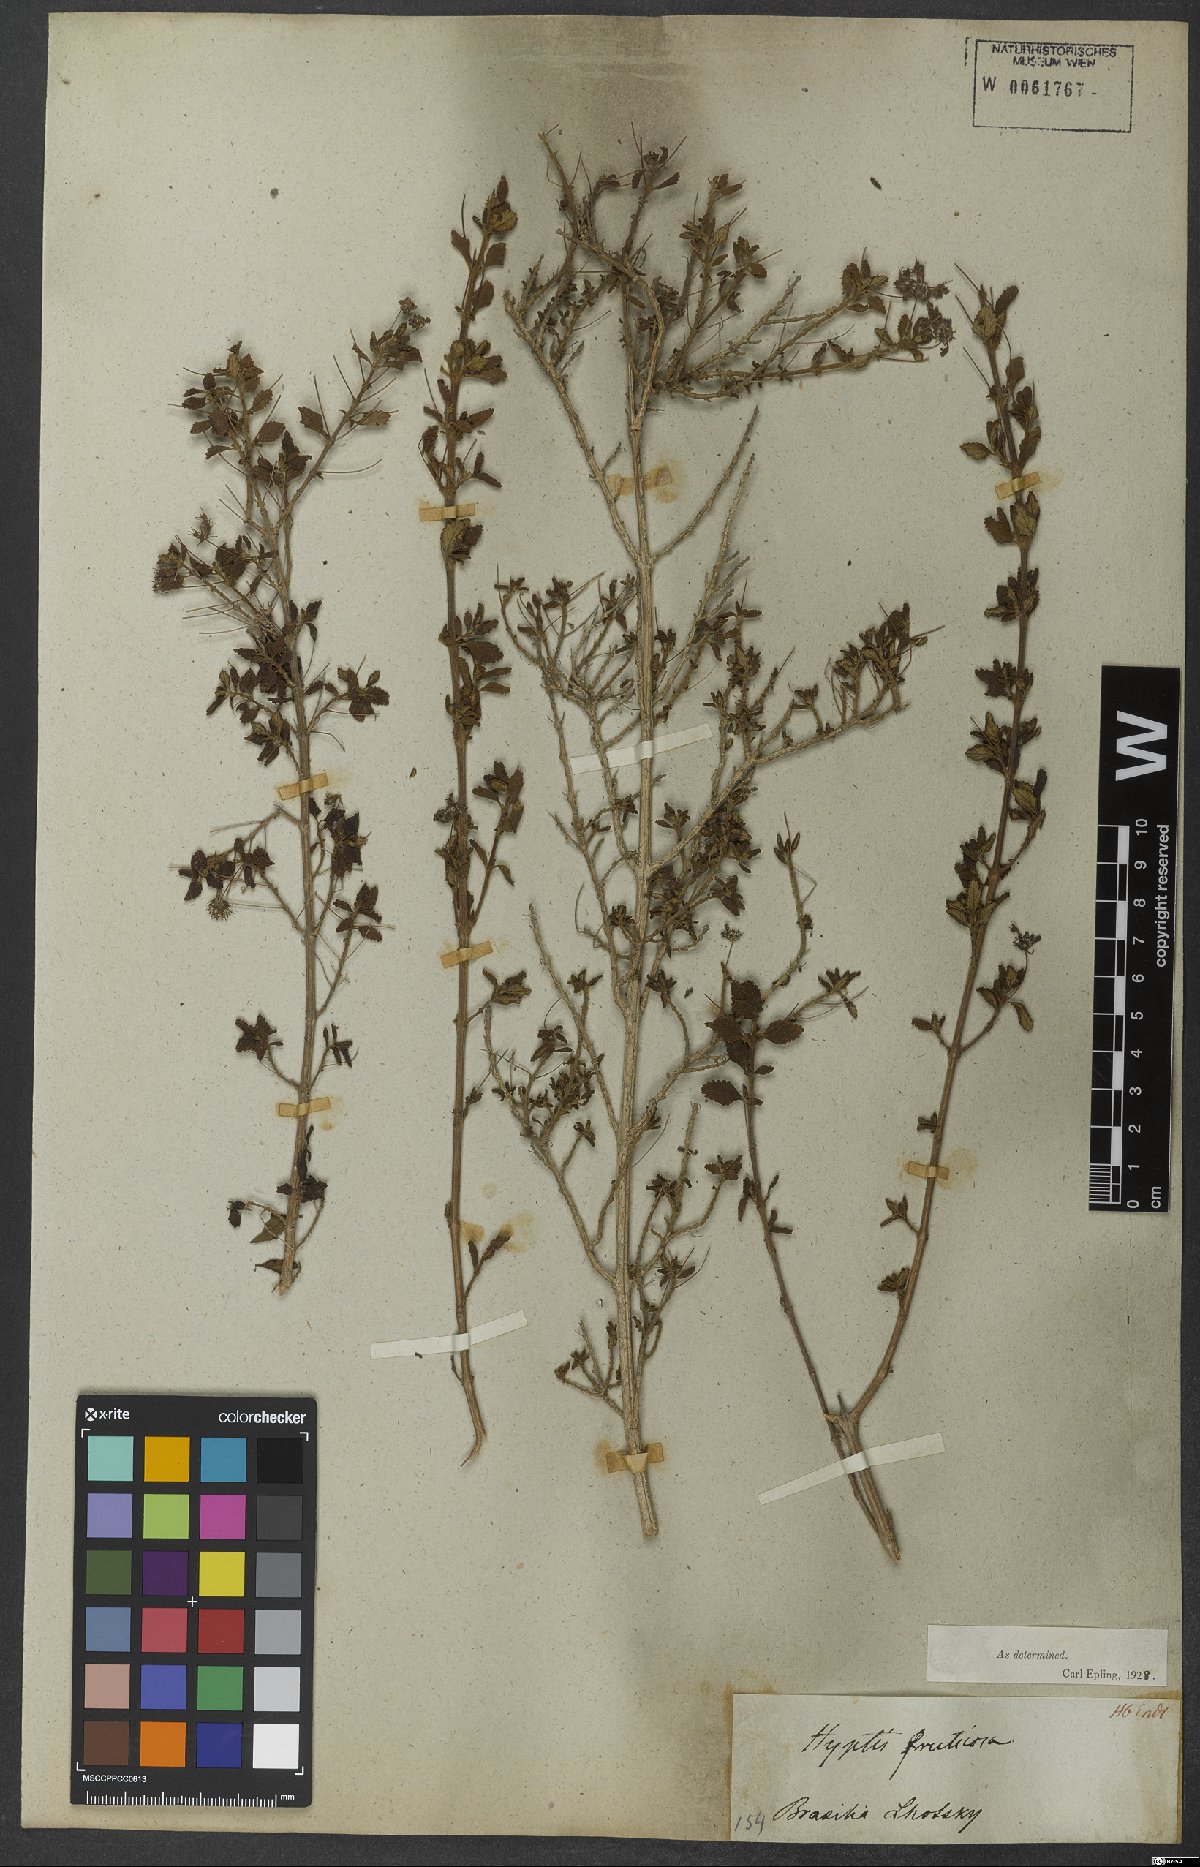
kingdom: Plantae
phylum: Tracheophyta
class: Magnoliopsida
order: Lamiales
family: Lamiaceae
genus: Eplingiella
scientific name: Eplingiella fruticosa
